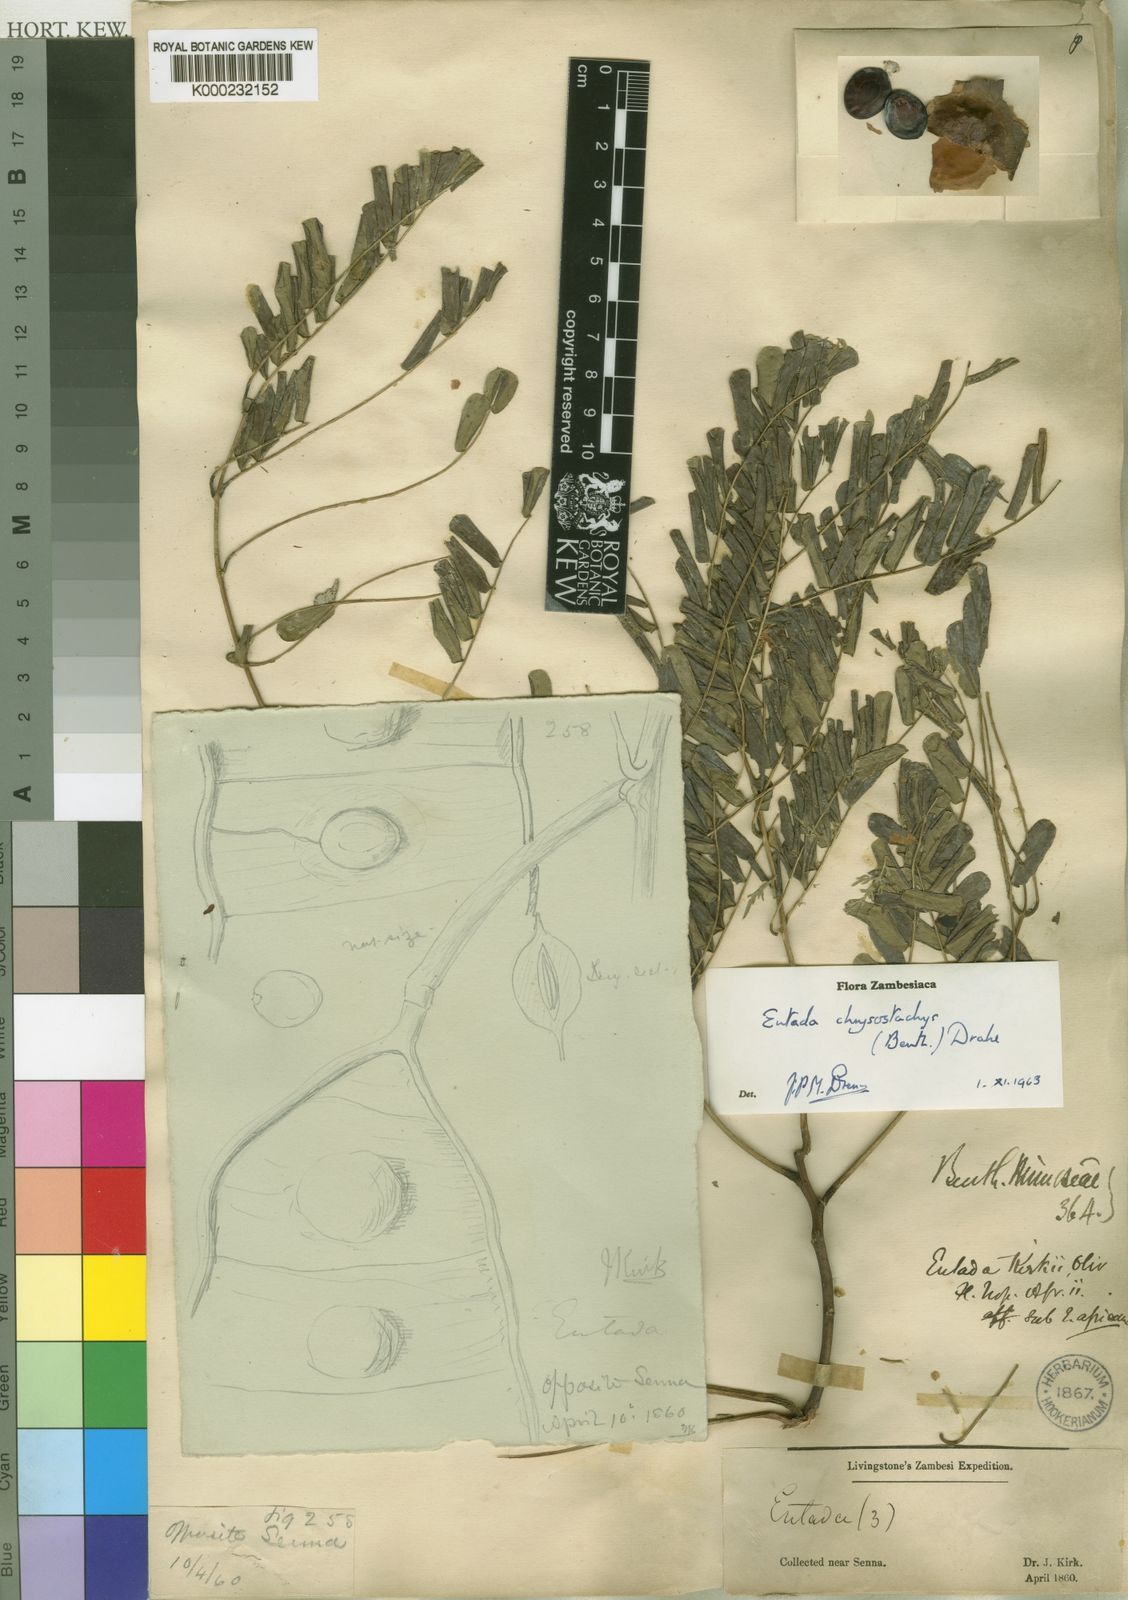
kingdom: Plantae
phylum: Tracheophyta
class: Magnoliopsida
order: Fabales
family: Fabaceae
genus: Entada
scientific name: Entada chrysostachys
